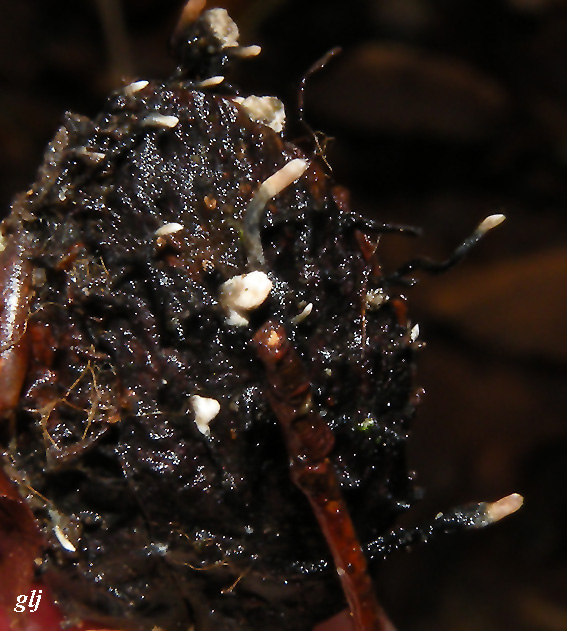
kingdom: Fungi
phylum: Ascomycota
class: Sordariomycetes
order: Xylariales
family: Xylariaceae
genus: Xylaria
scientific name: Xylaria carpophila
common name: bogskål-stødsvamp
